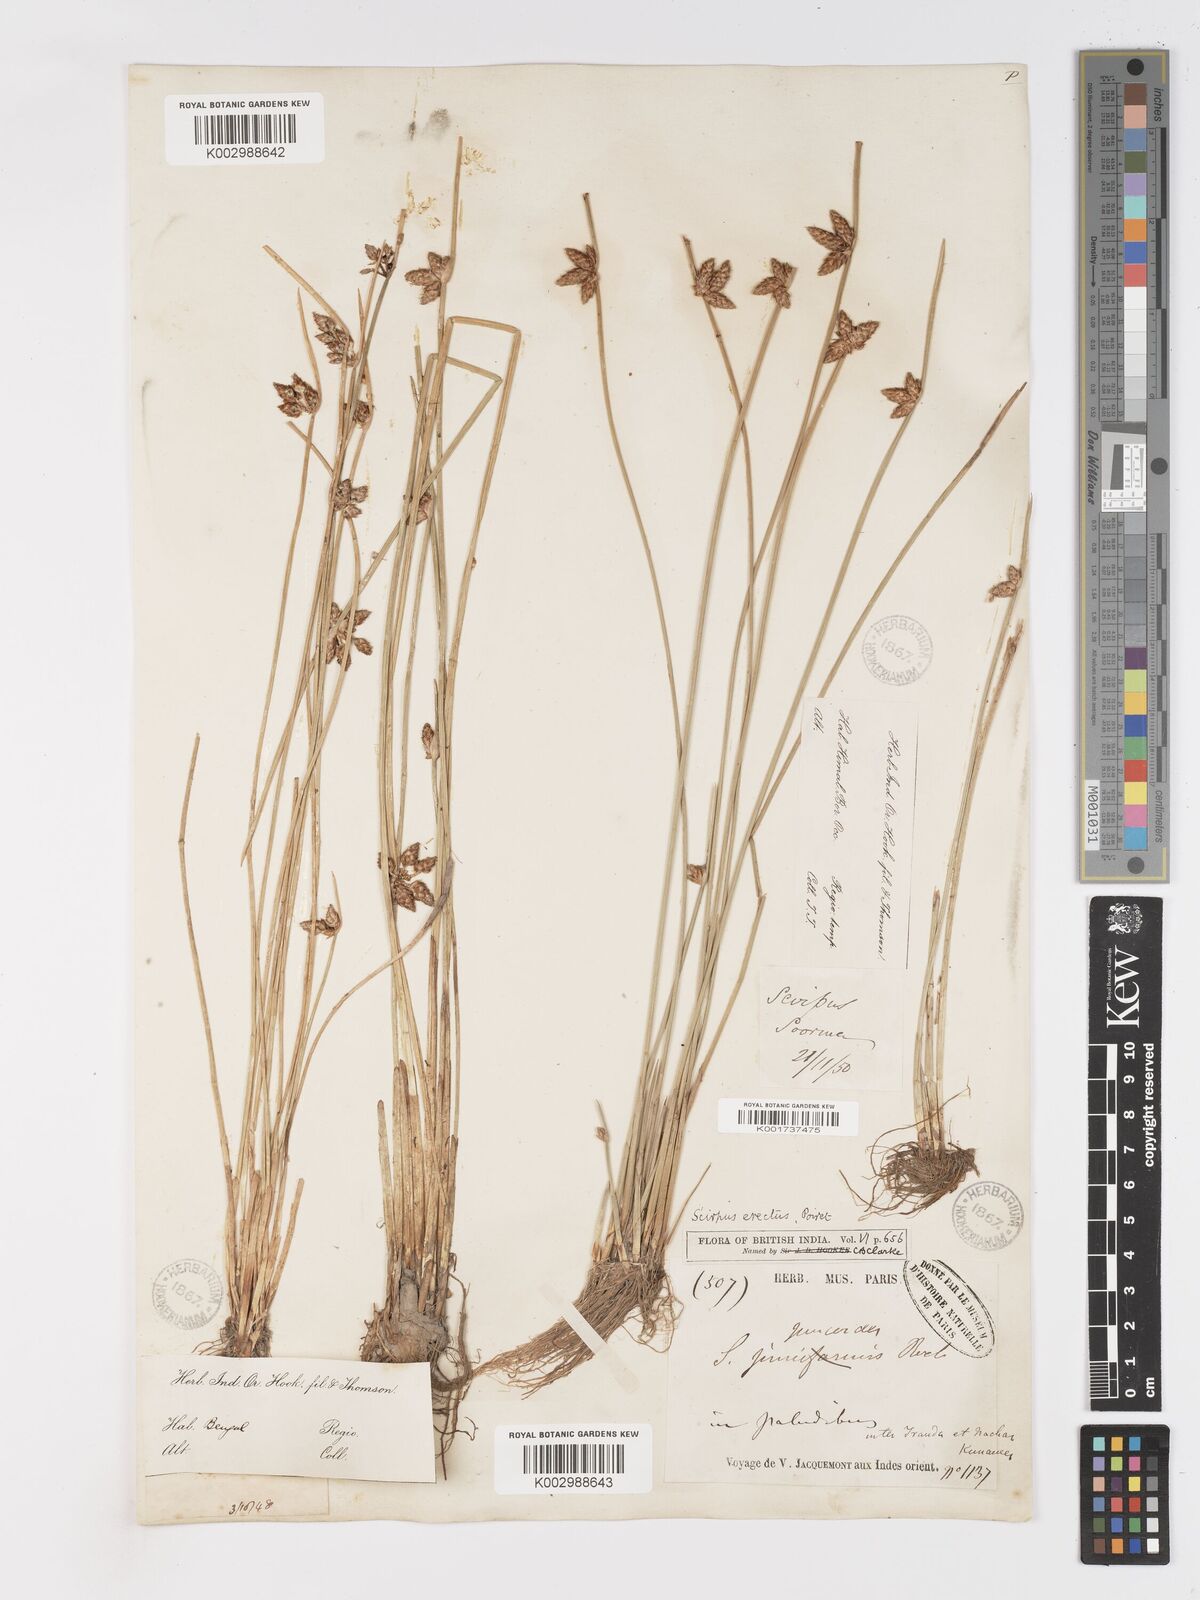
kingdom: Plantae
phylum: Tracheophyta
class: Liliopsida
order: Poales
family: Cyperaceae
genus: Schoenoplectiella
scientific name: Schoenoplectiella juncoides
